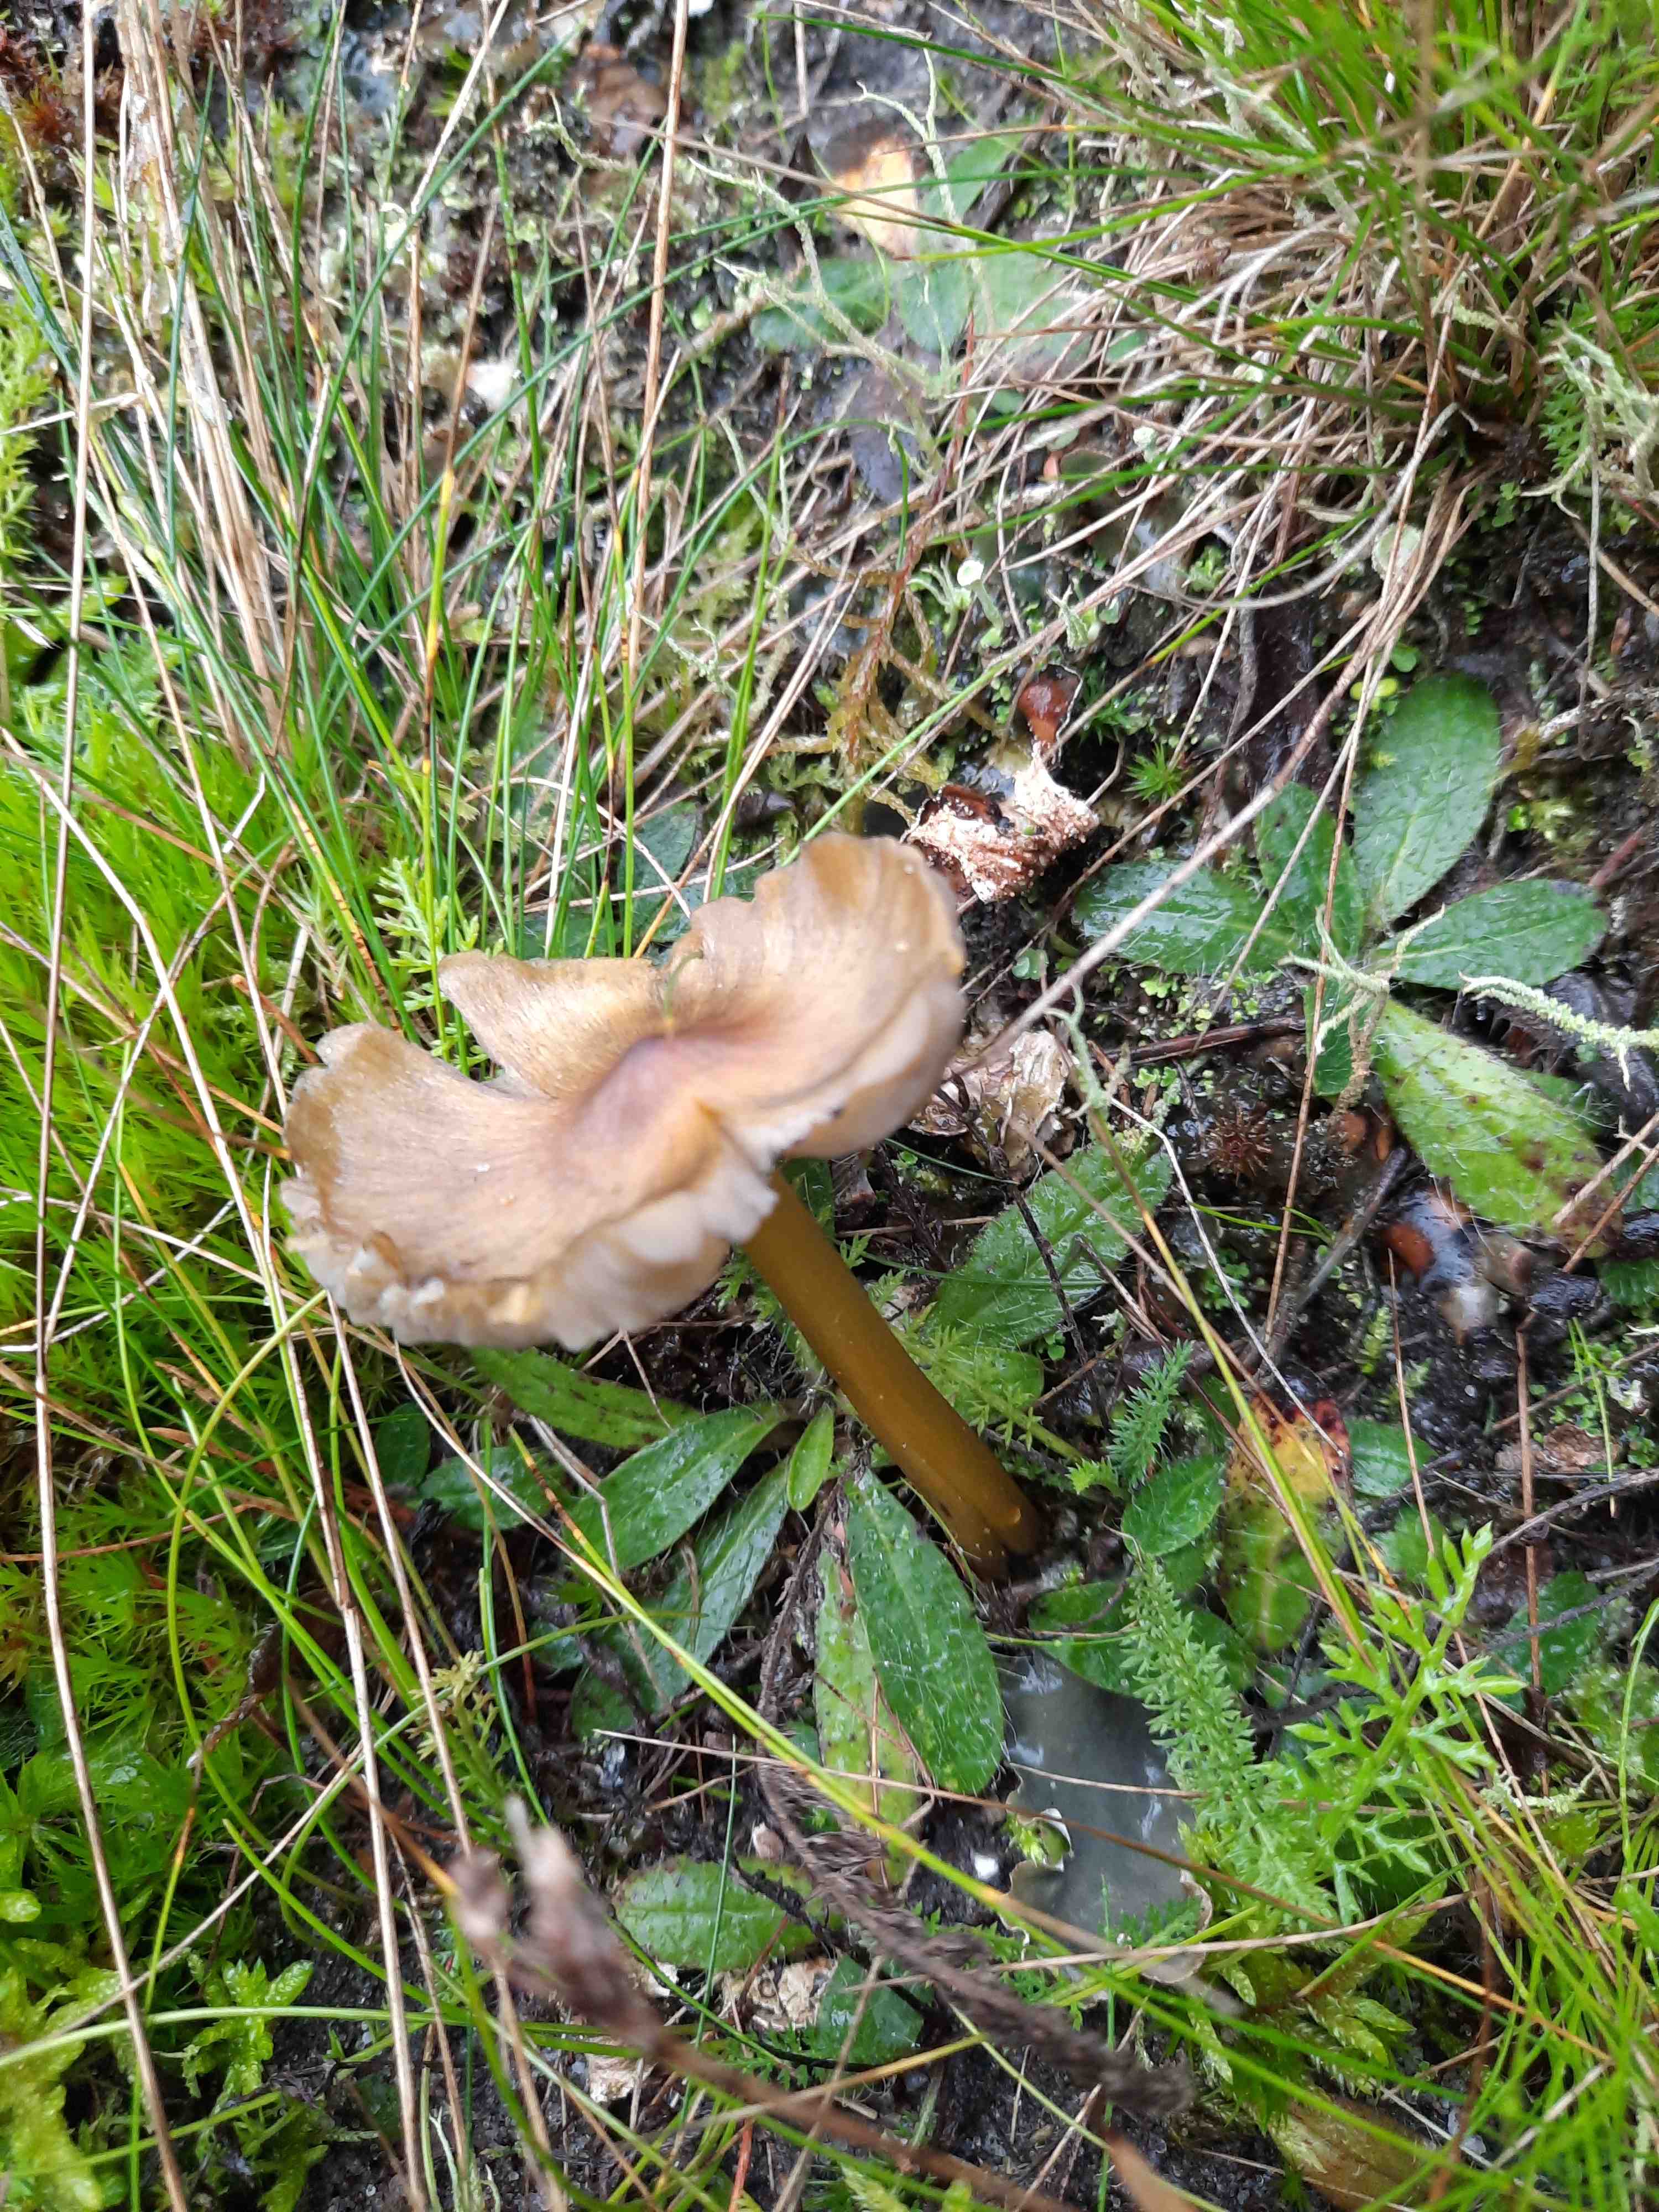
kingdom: Fungi
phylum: Basidiomycota
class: Agaricomycetes
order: Agaricales
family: Hygrophoraceae
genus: Hygrocybe
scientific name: Hygrocybe conica
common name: kegle-vokshat
